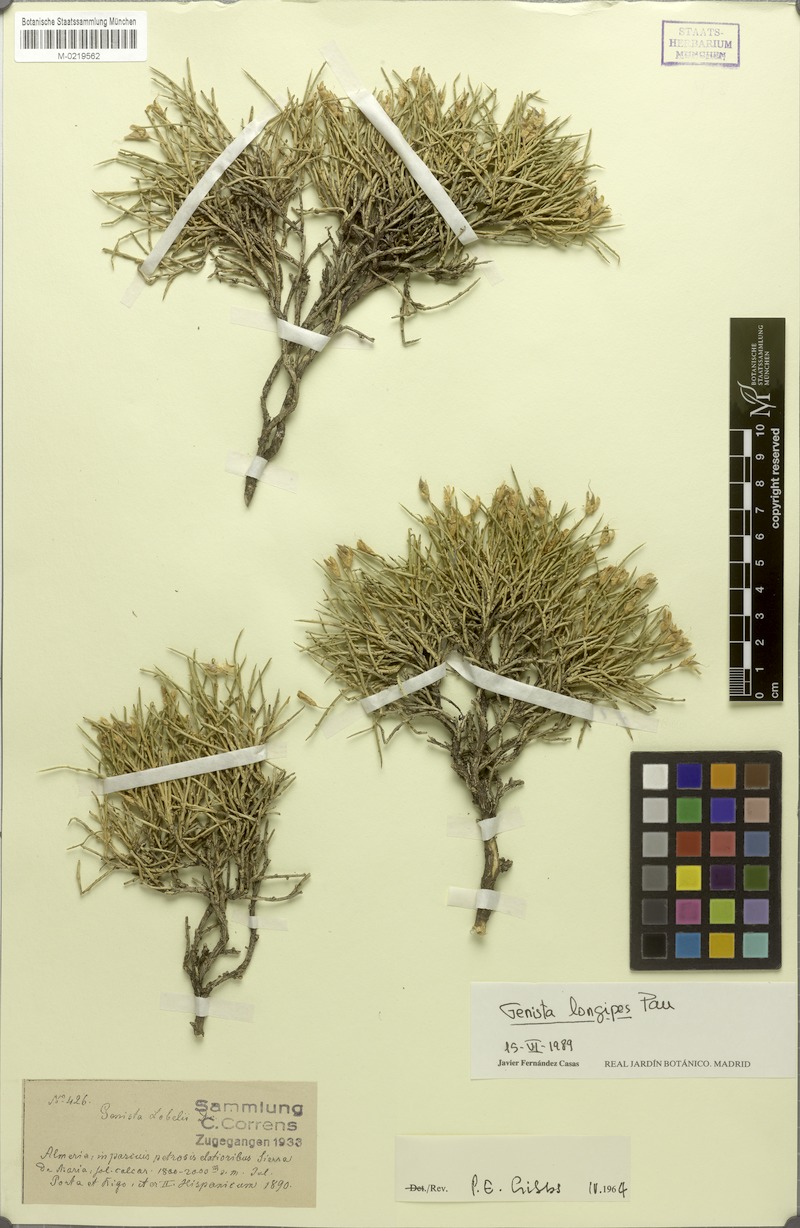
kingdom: Plantae
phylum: Tracheophyta
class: Magnoliopsida
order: Fabales
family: Fabaceae
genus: Genista
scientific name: Genista longipes
